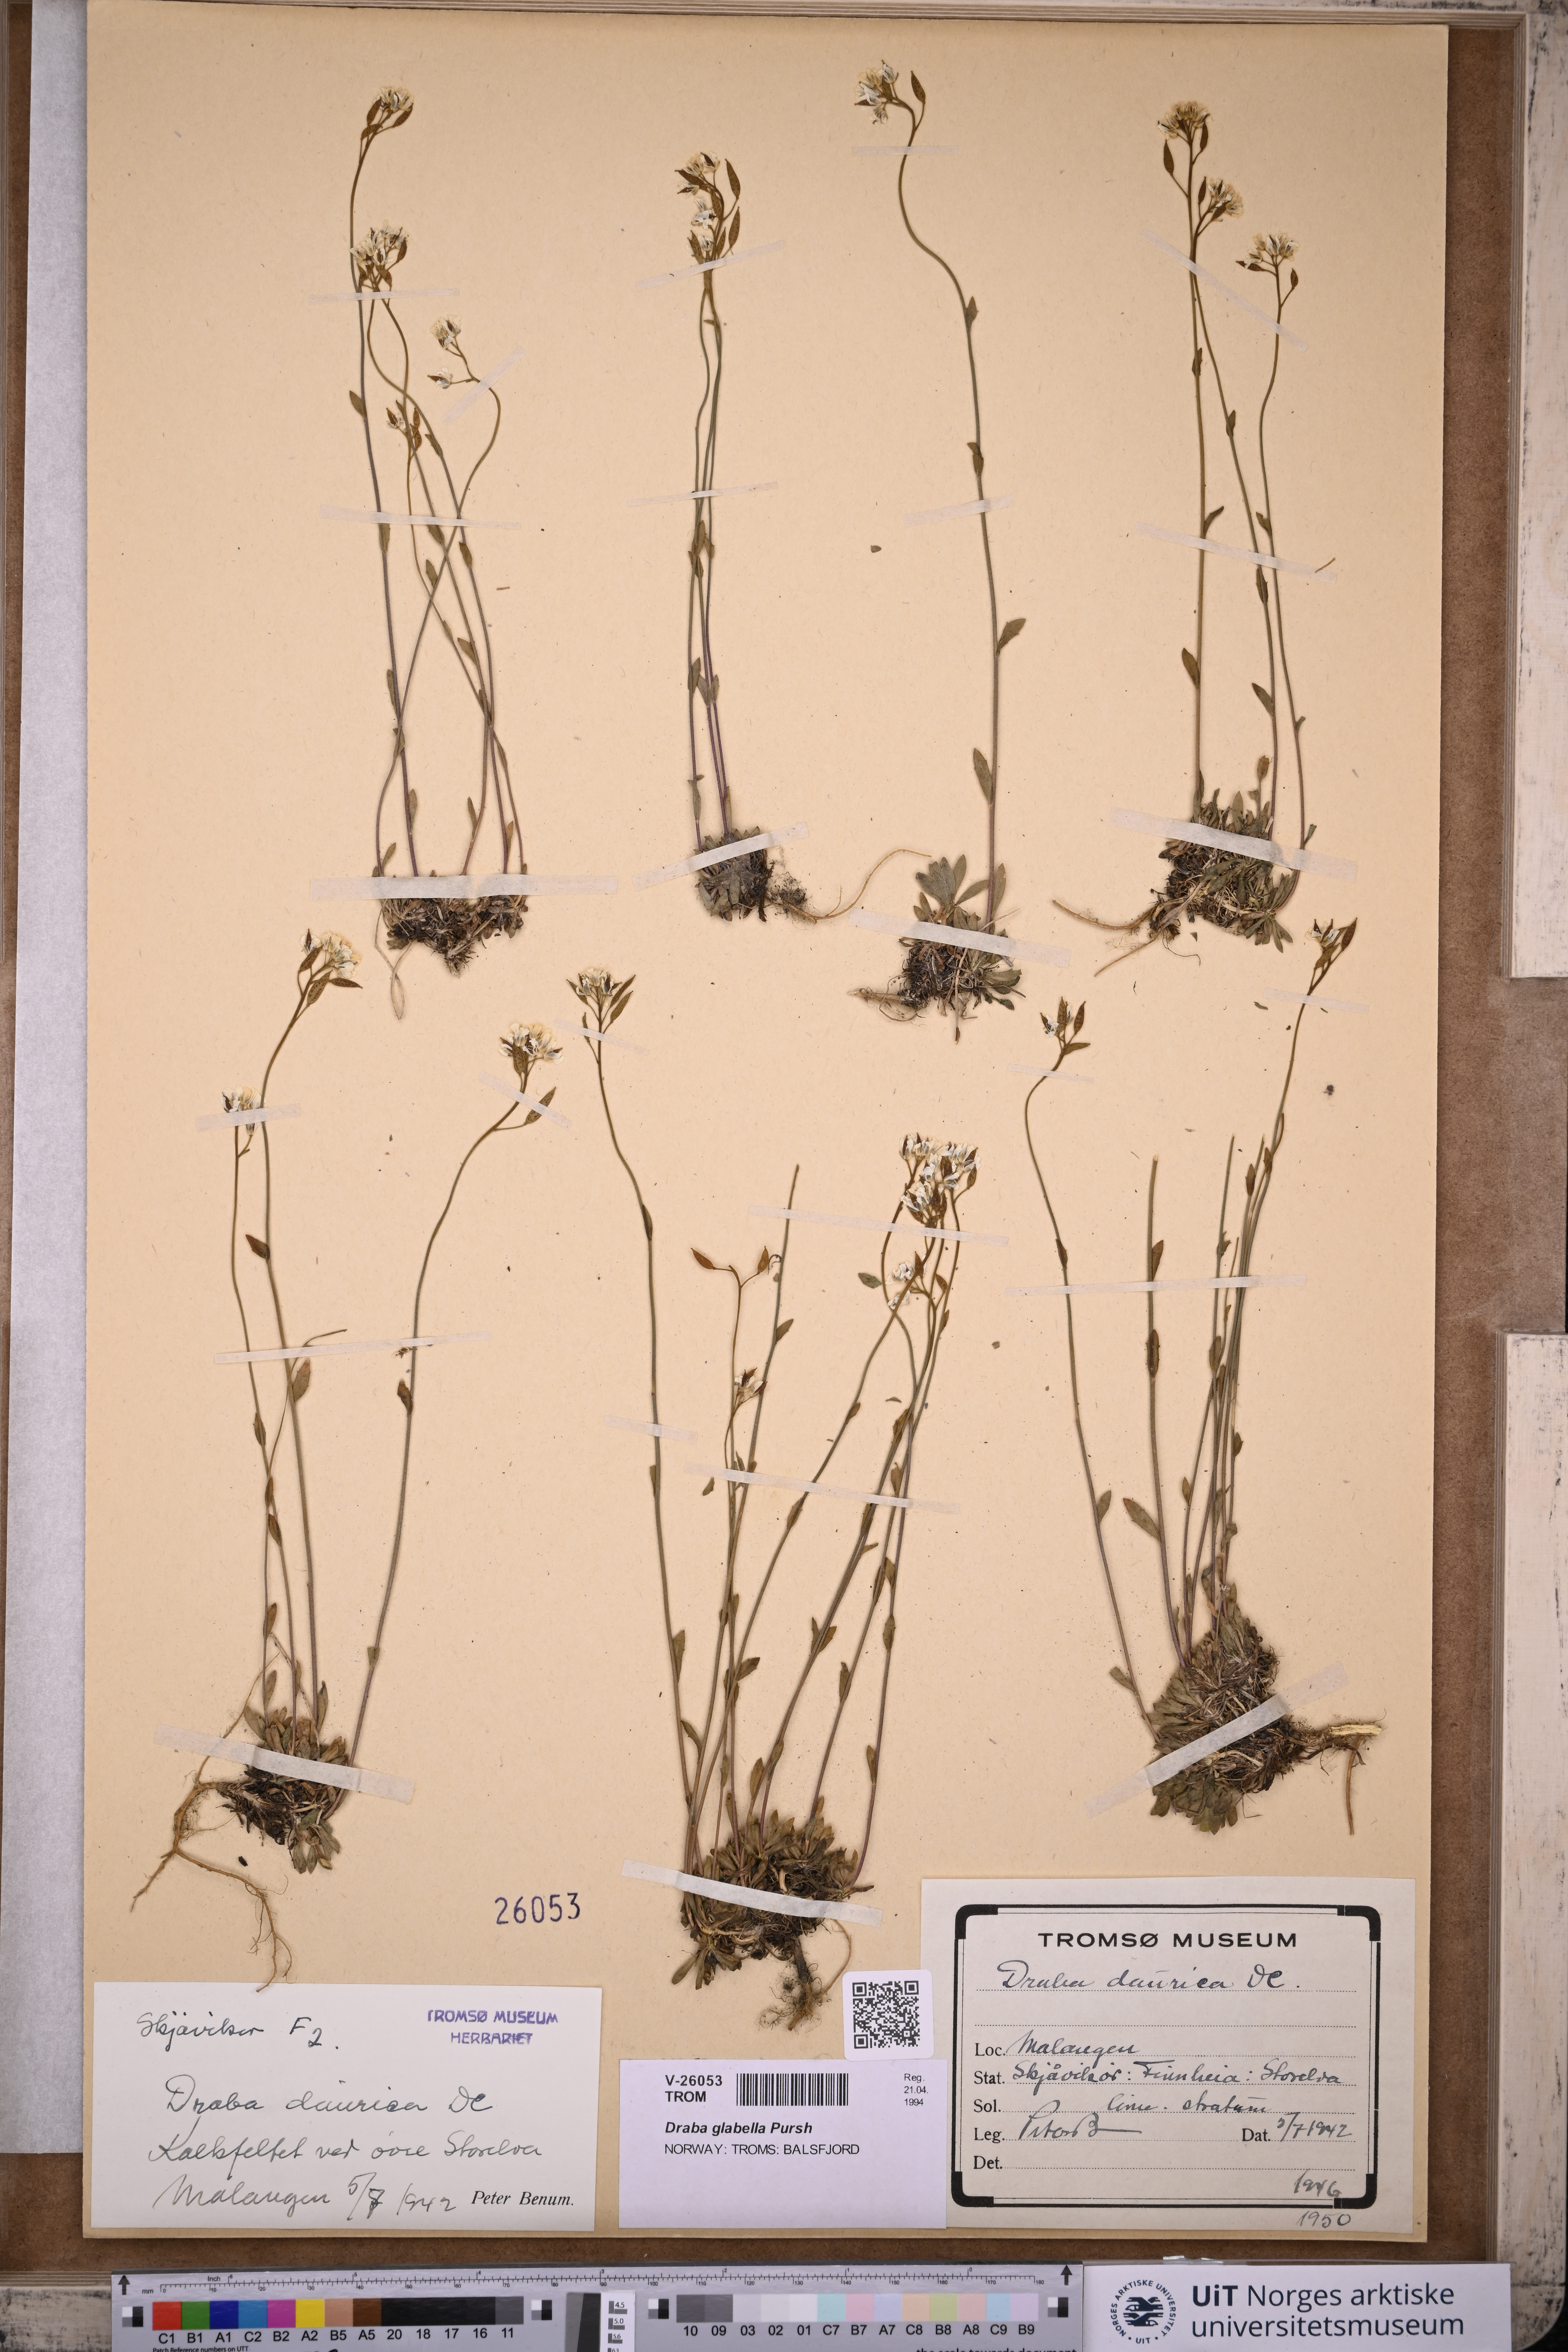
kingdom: Plantae
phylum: Tracheophyta
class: Magnoliopsida
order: Brassicales
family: Brassicaceae
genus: Draba
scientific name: Draba glabella
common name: Glaucous draba
